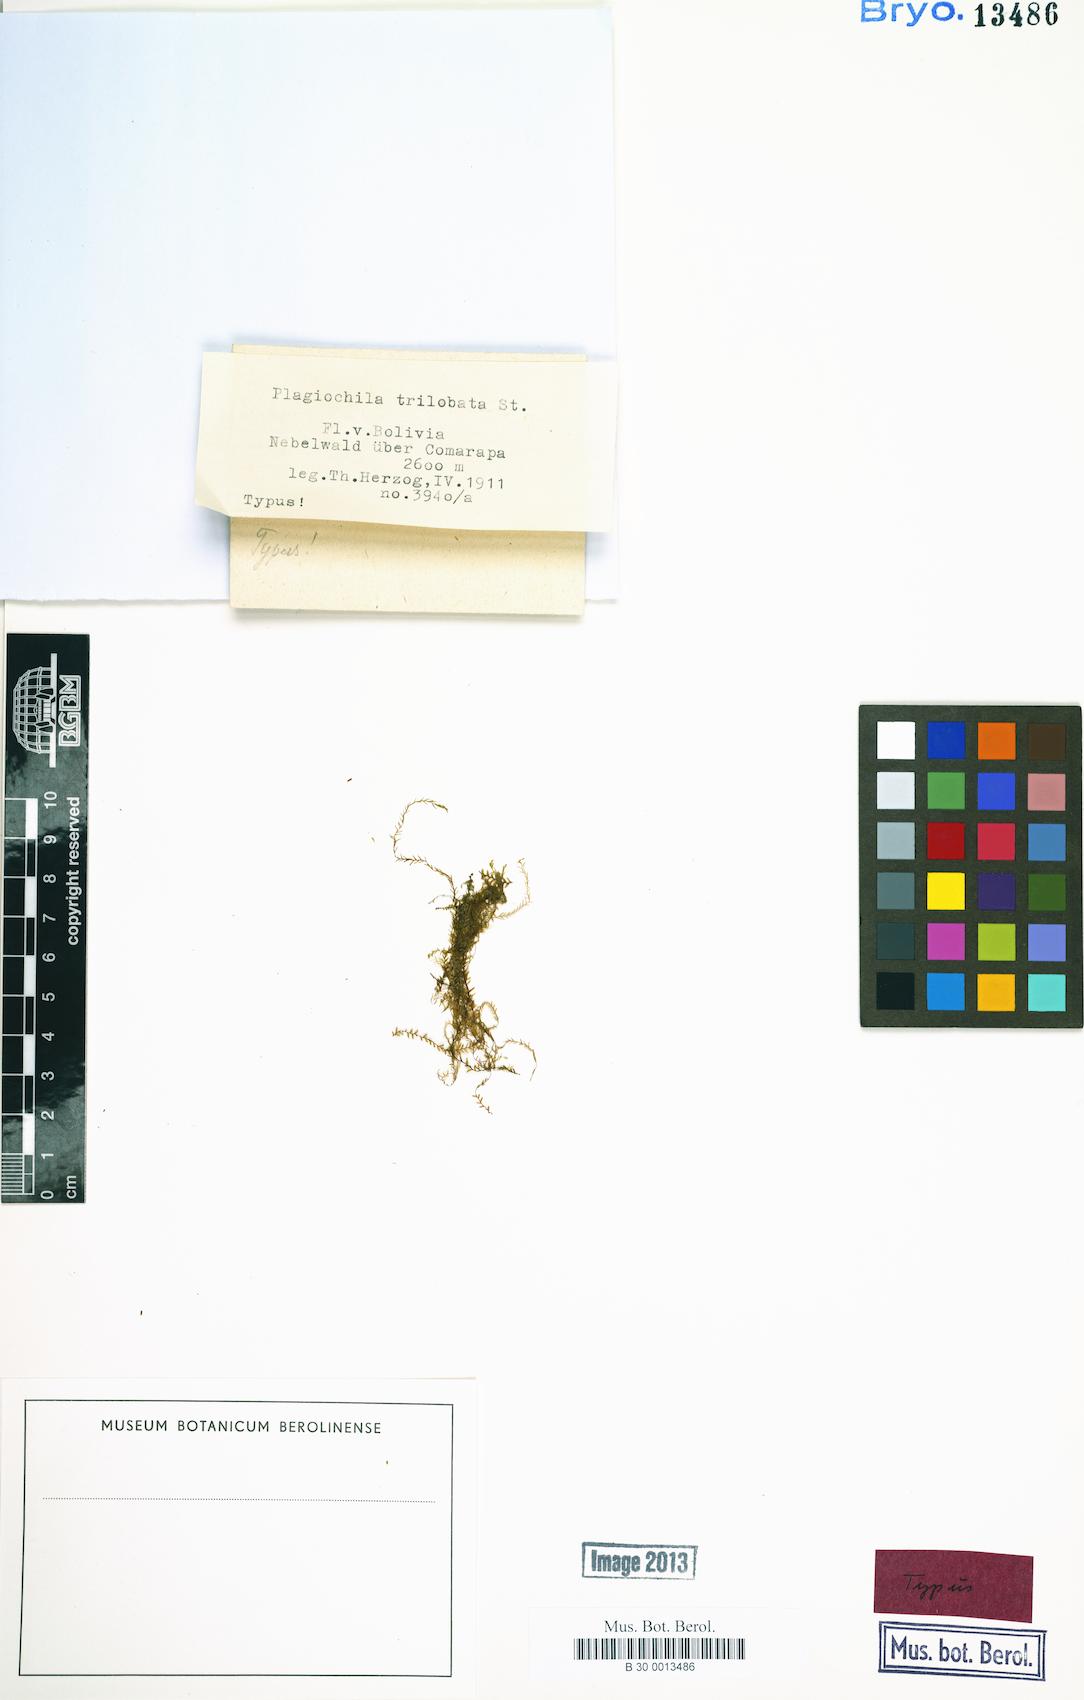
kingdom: Plantae
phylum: Marchantiophyta
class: Jungermanniopsida
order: Jungermanniales
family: Plagiochilaceae
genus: Plagiochila
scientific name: Plagiochila aerea
